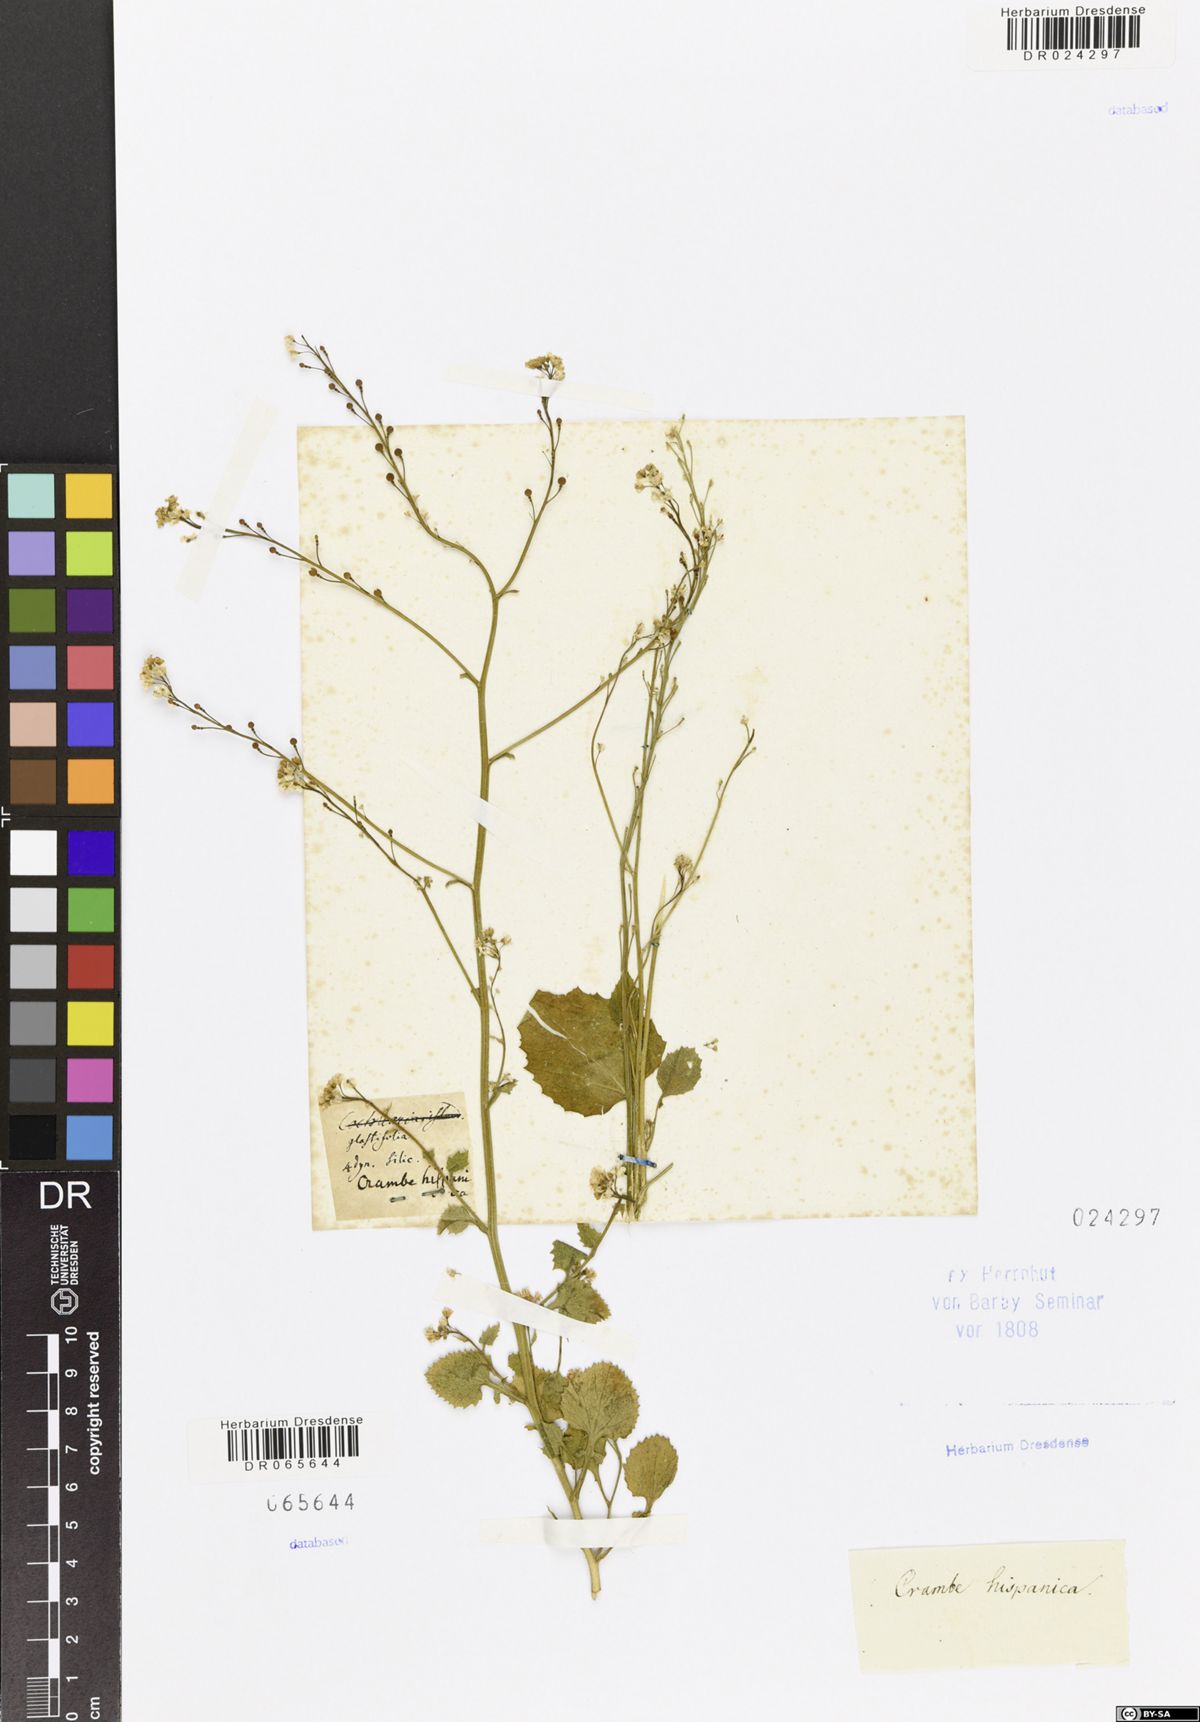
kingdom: Plantae
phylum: Tracheophyta
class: Magnoliopsida
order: Brassicales
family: Brassicaceae
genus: Crambe
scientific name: Crambe hispanica
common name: Abyssinian mustard
